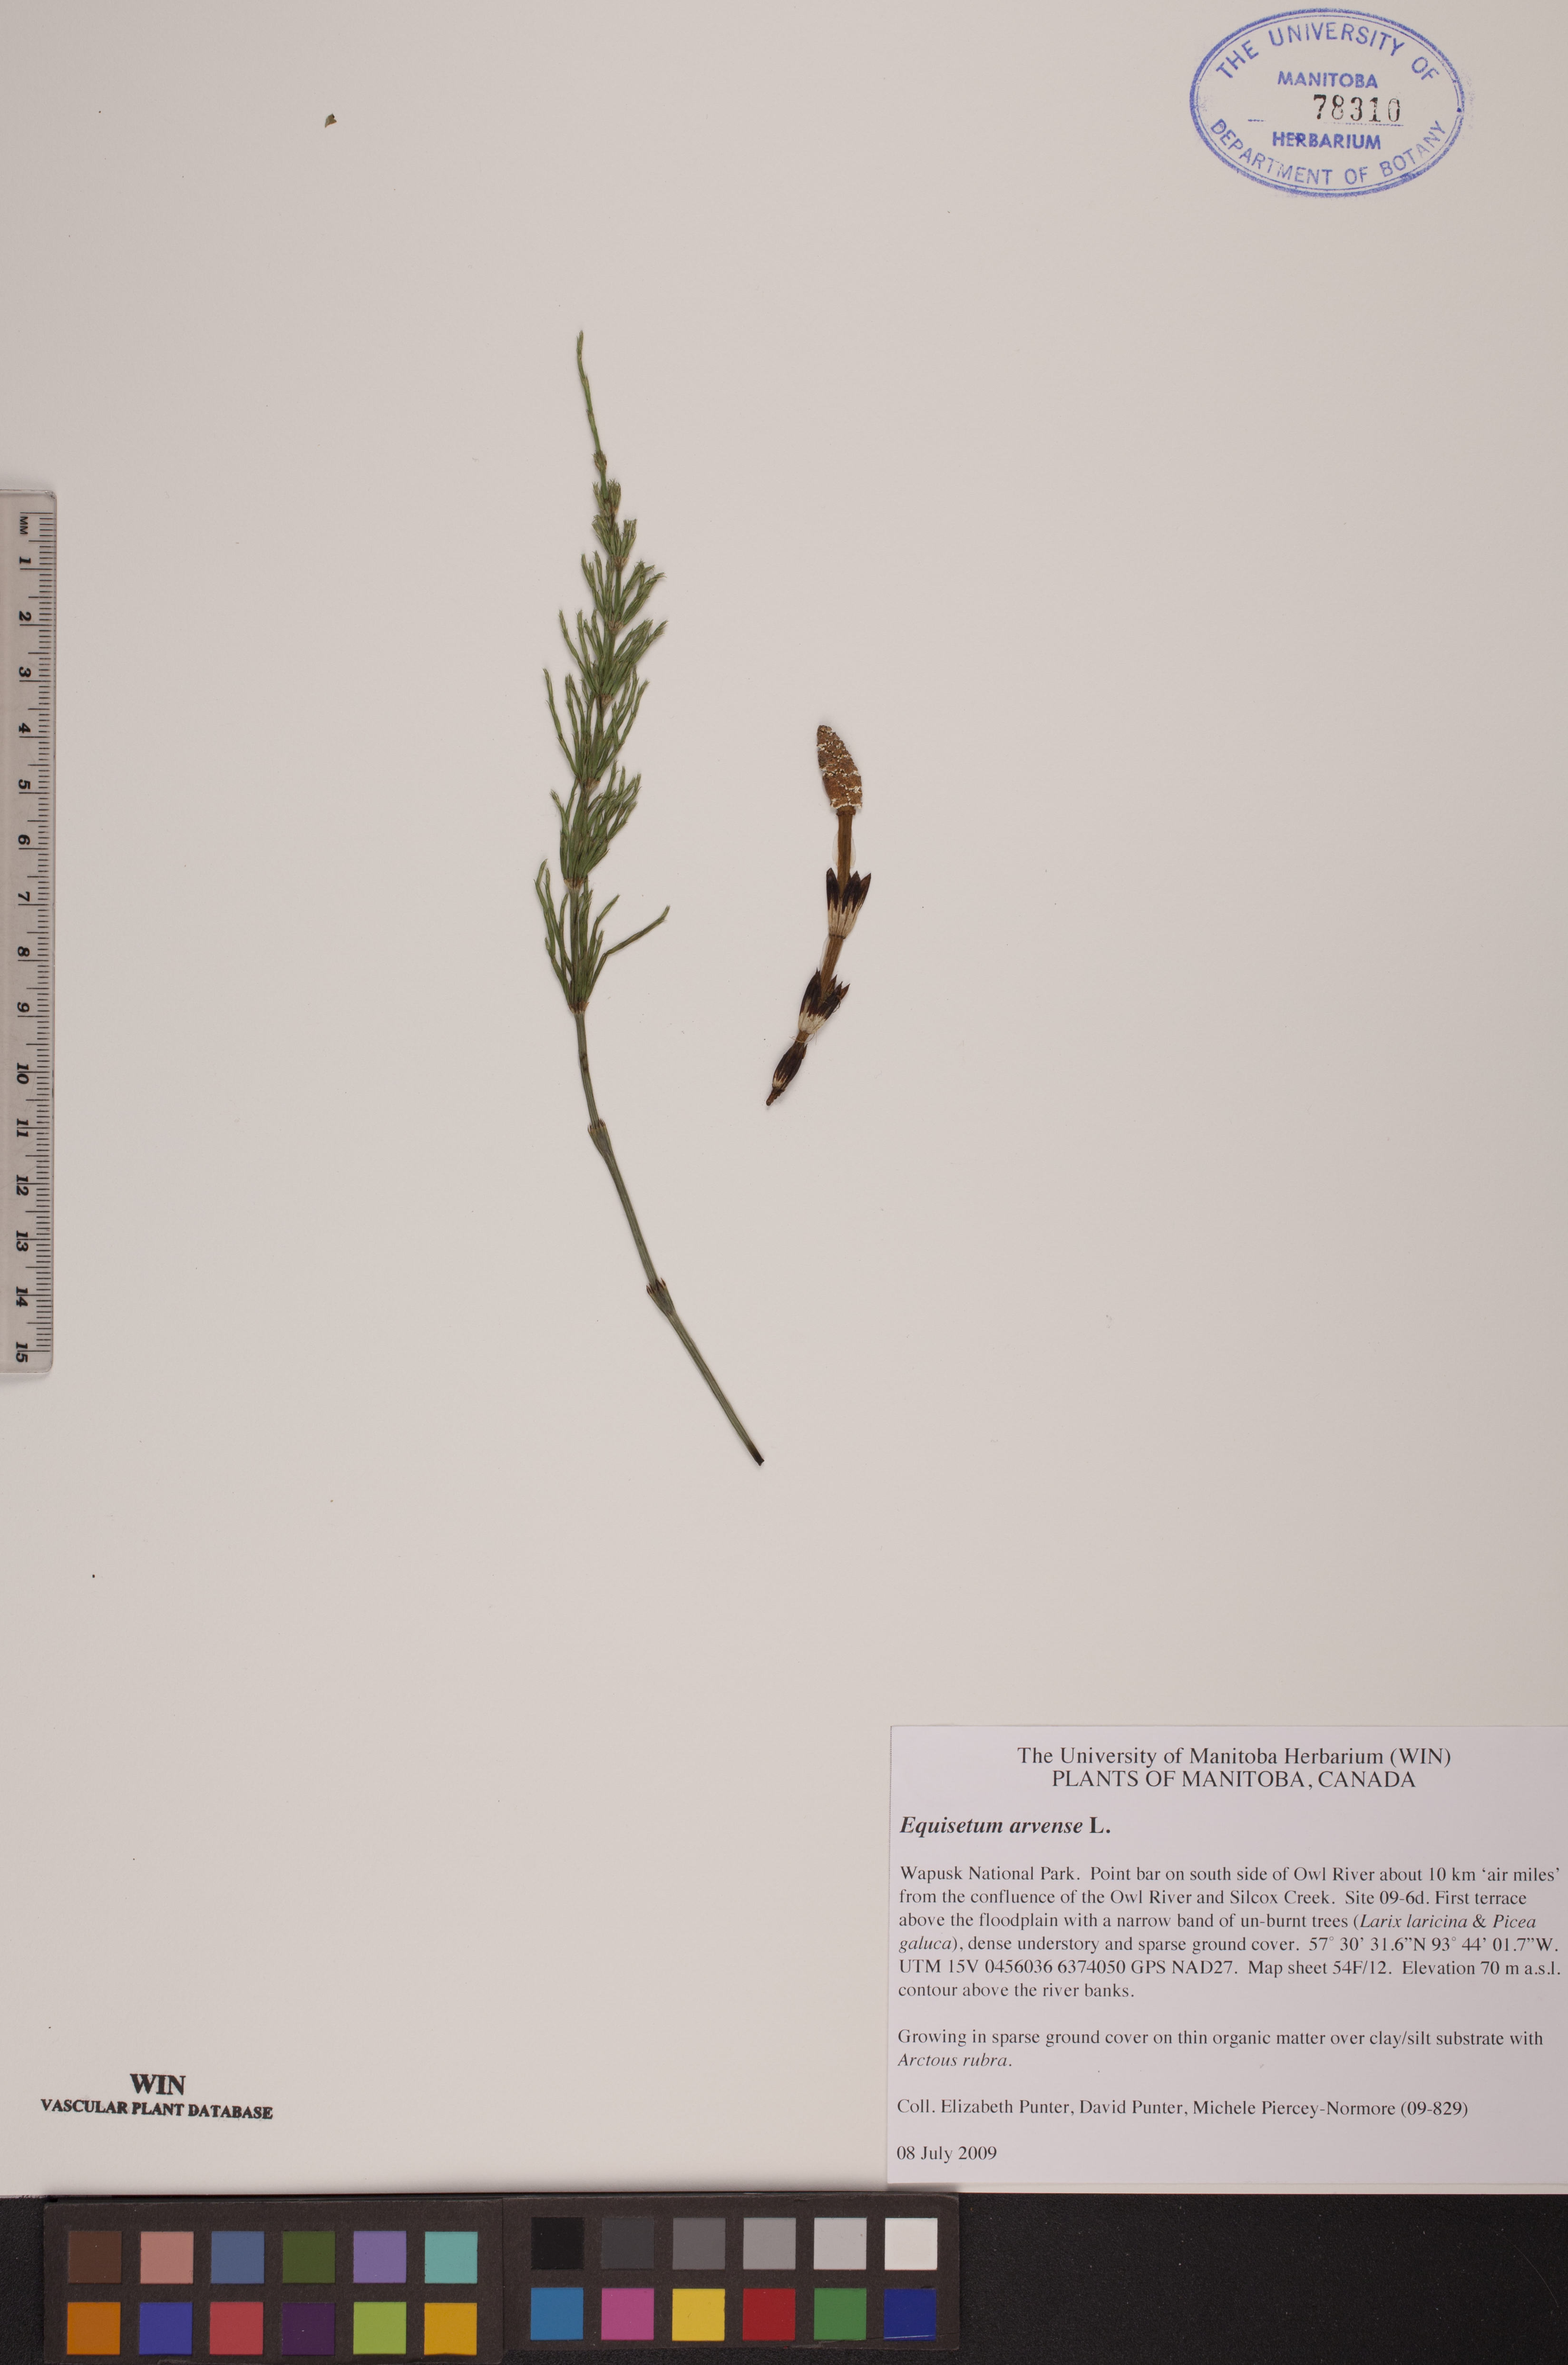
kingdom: Plantae
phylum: Tracheophyta
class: Polypodiopsida
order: Equisetales
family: Equisetaceae
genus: Equisetum
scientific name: Equisetum arvense
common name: Field horsetail
